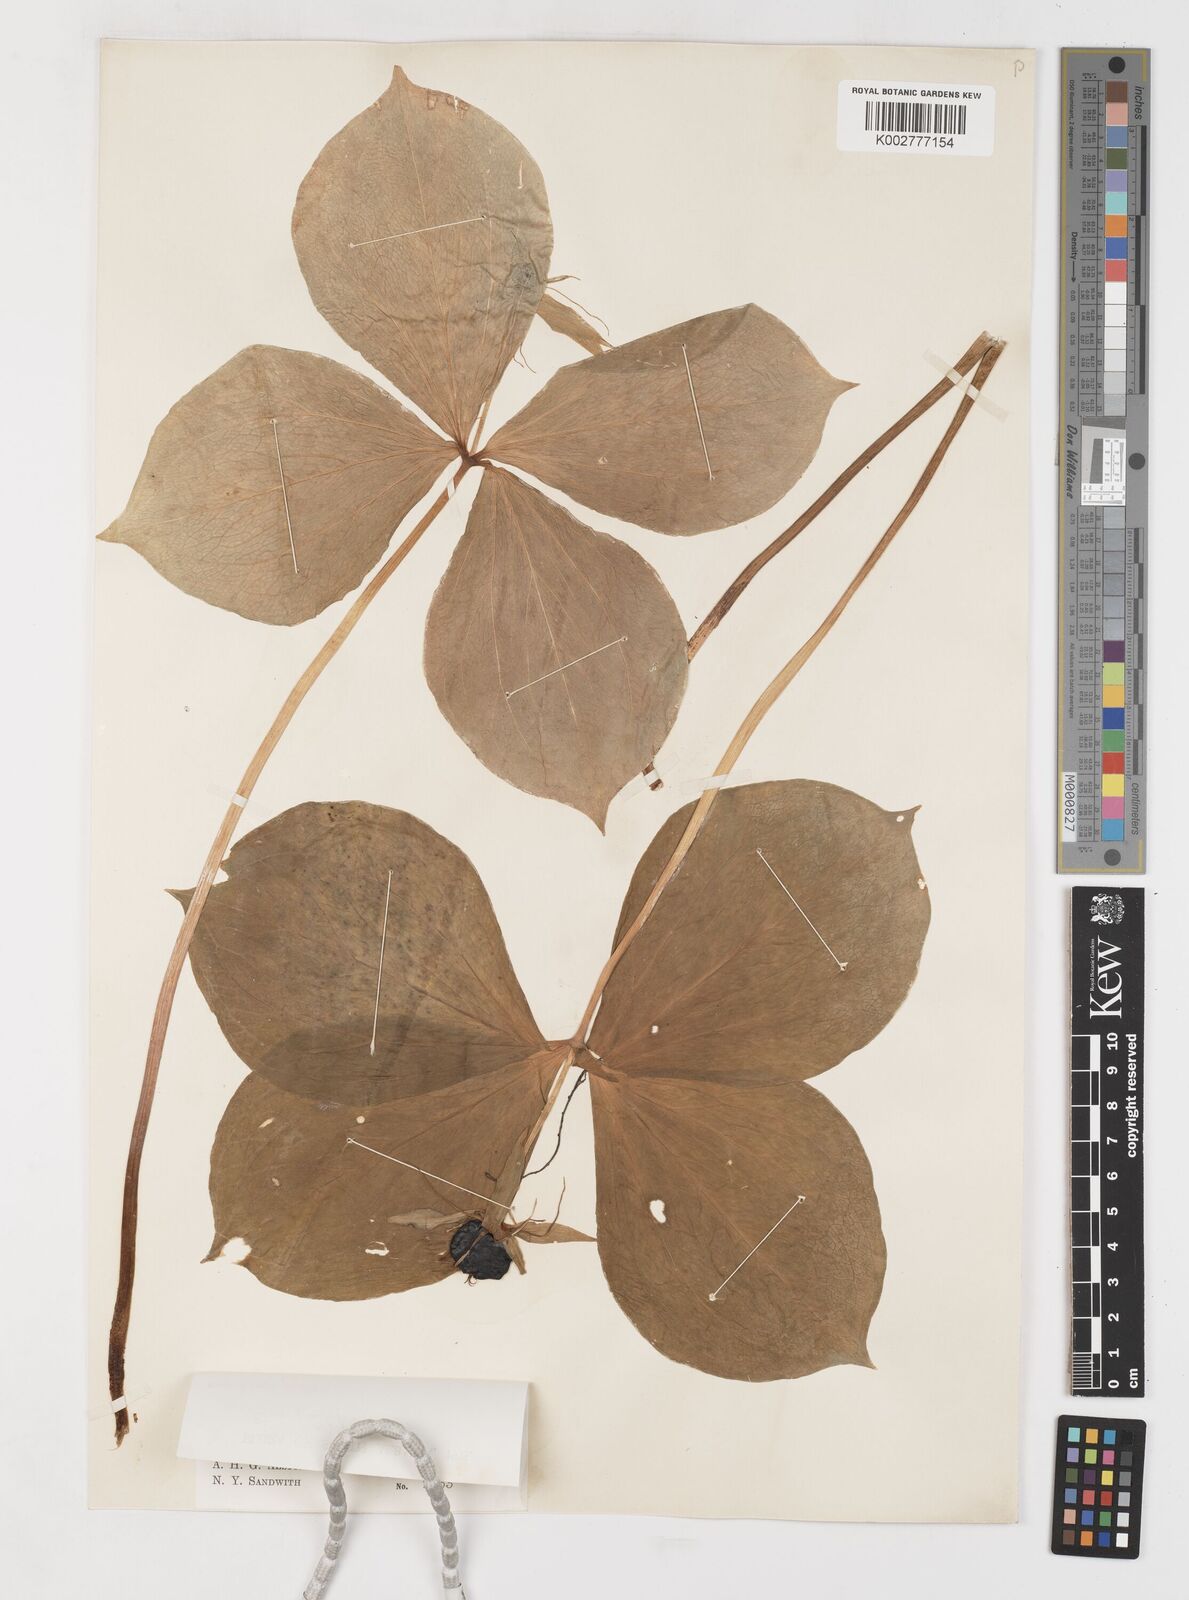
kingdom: Plantae
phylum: Tracheophyta
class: Liliopsida
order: Liliales
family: Melanthiaceae
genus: Paris
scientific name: Paris quadrifolia
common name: Herb-paris
